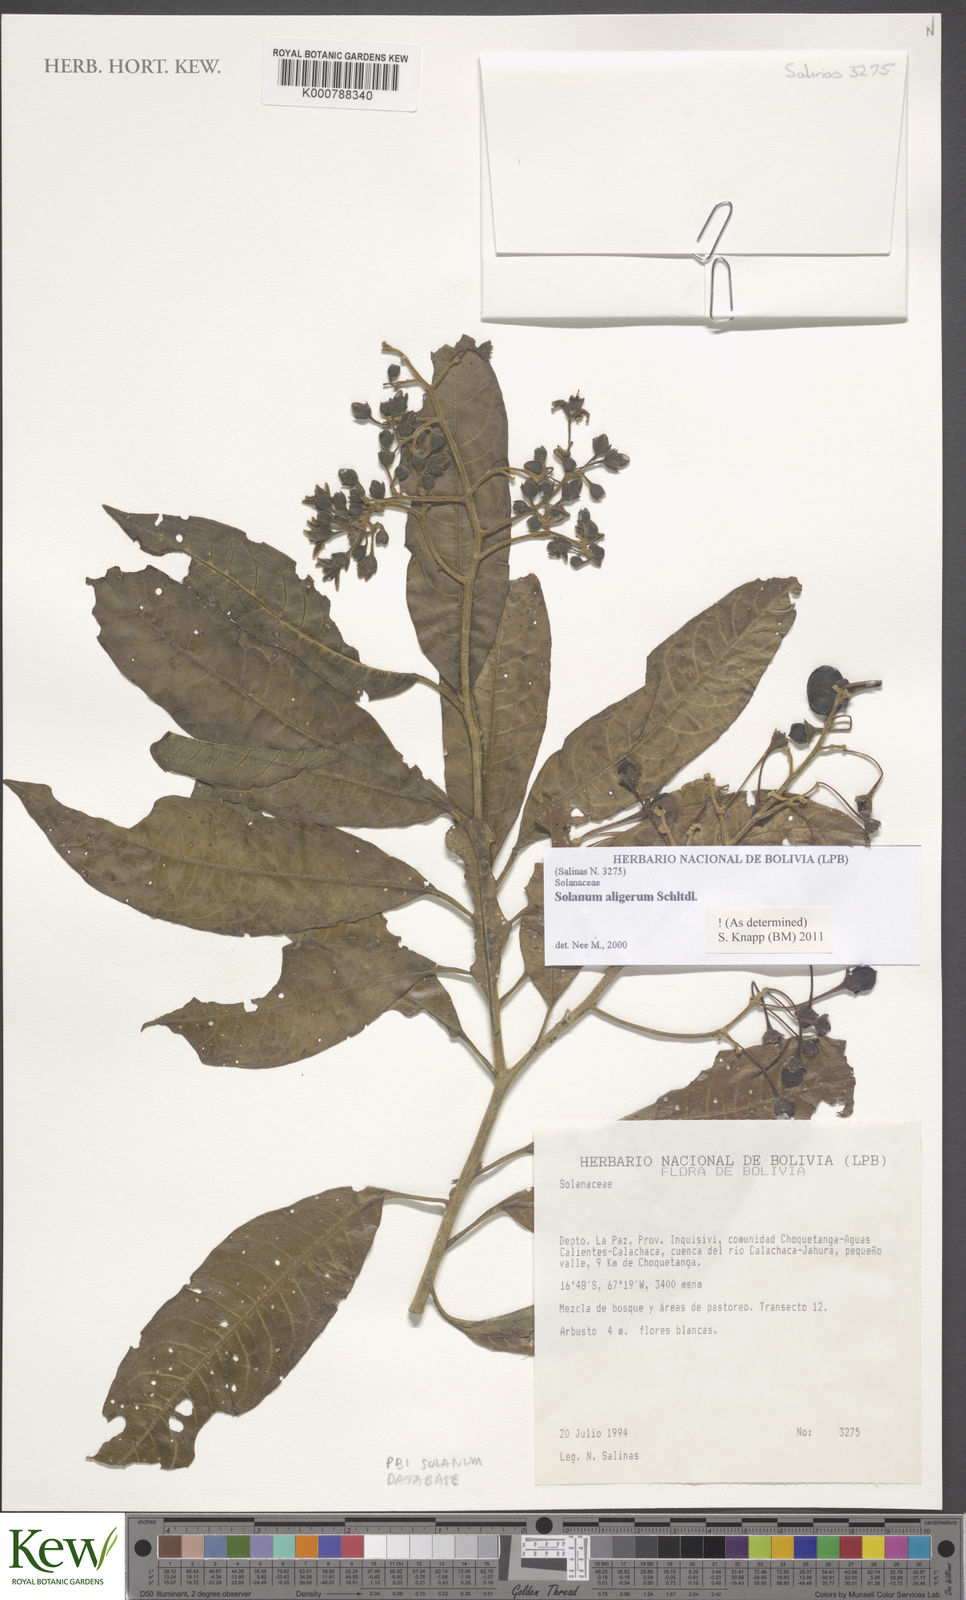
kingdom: Plantae
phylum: Tracheophyta
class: Magnoliopsida
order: Solanales
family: Solanaceae
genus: Solanum
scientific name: Solanum aligerum
